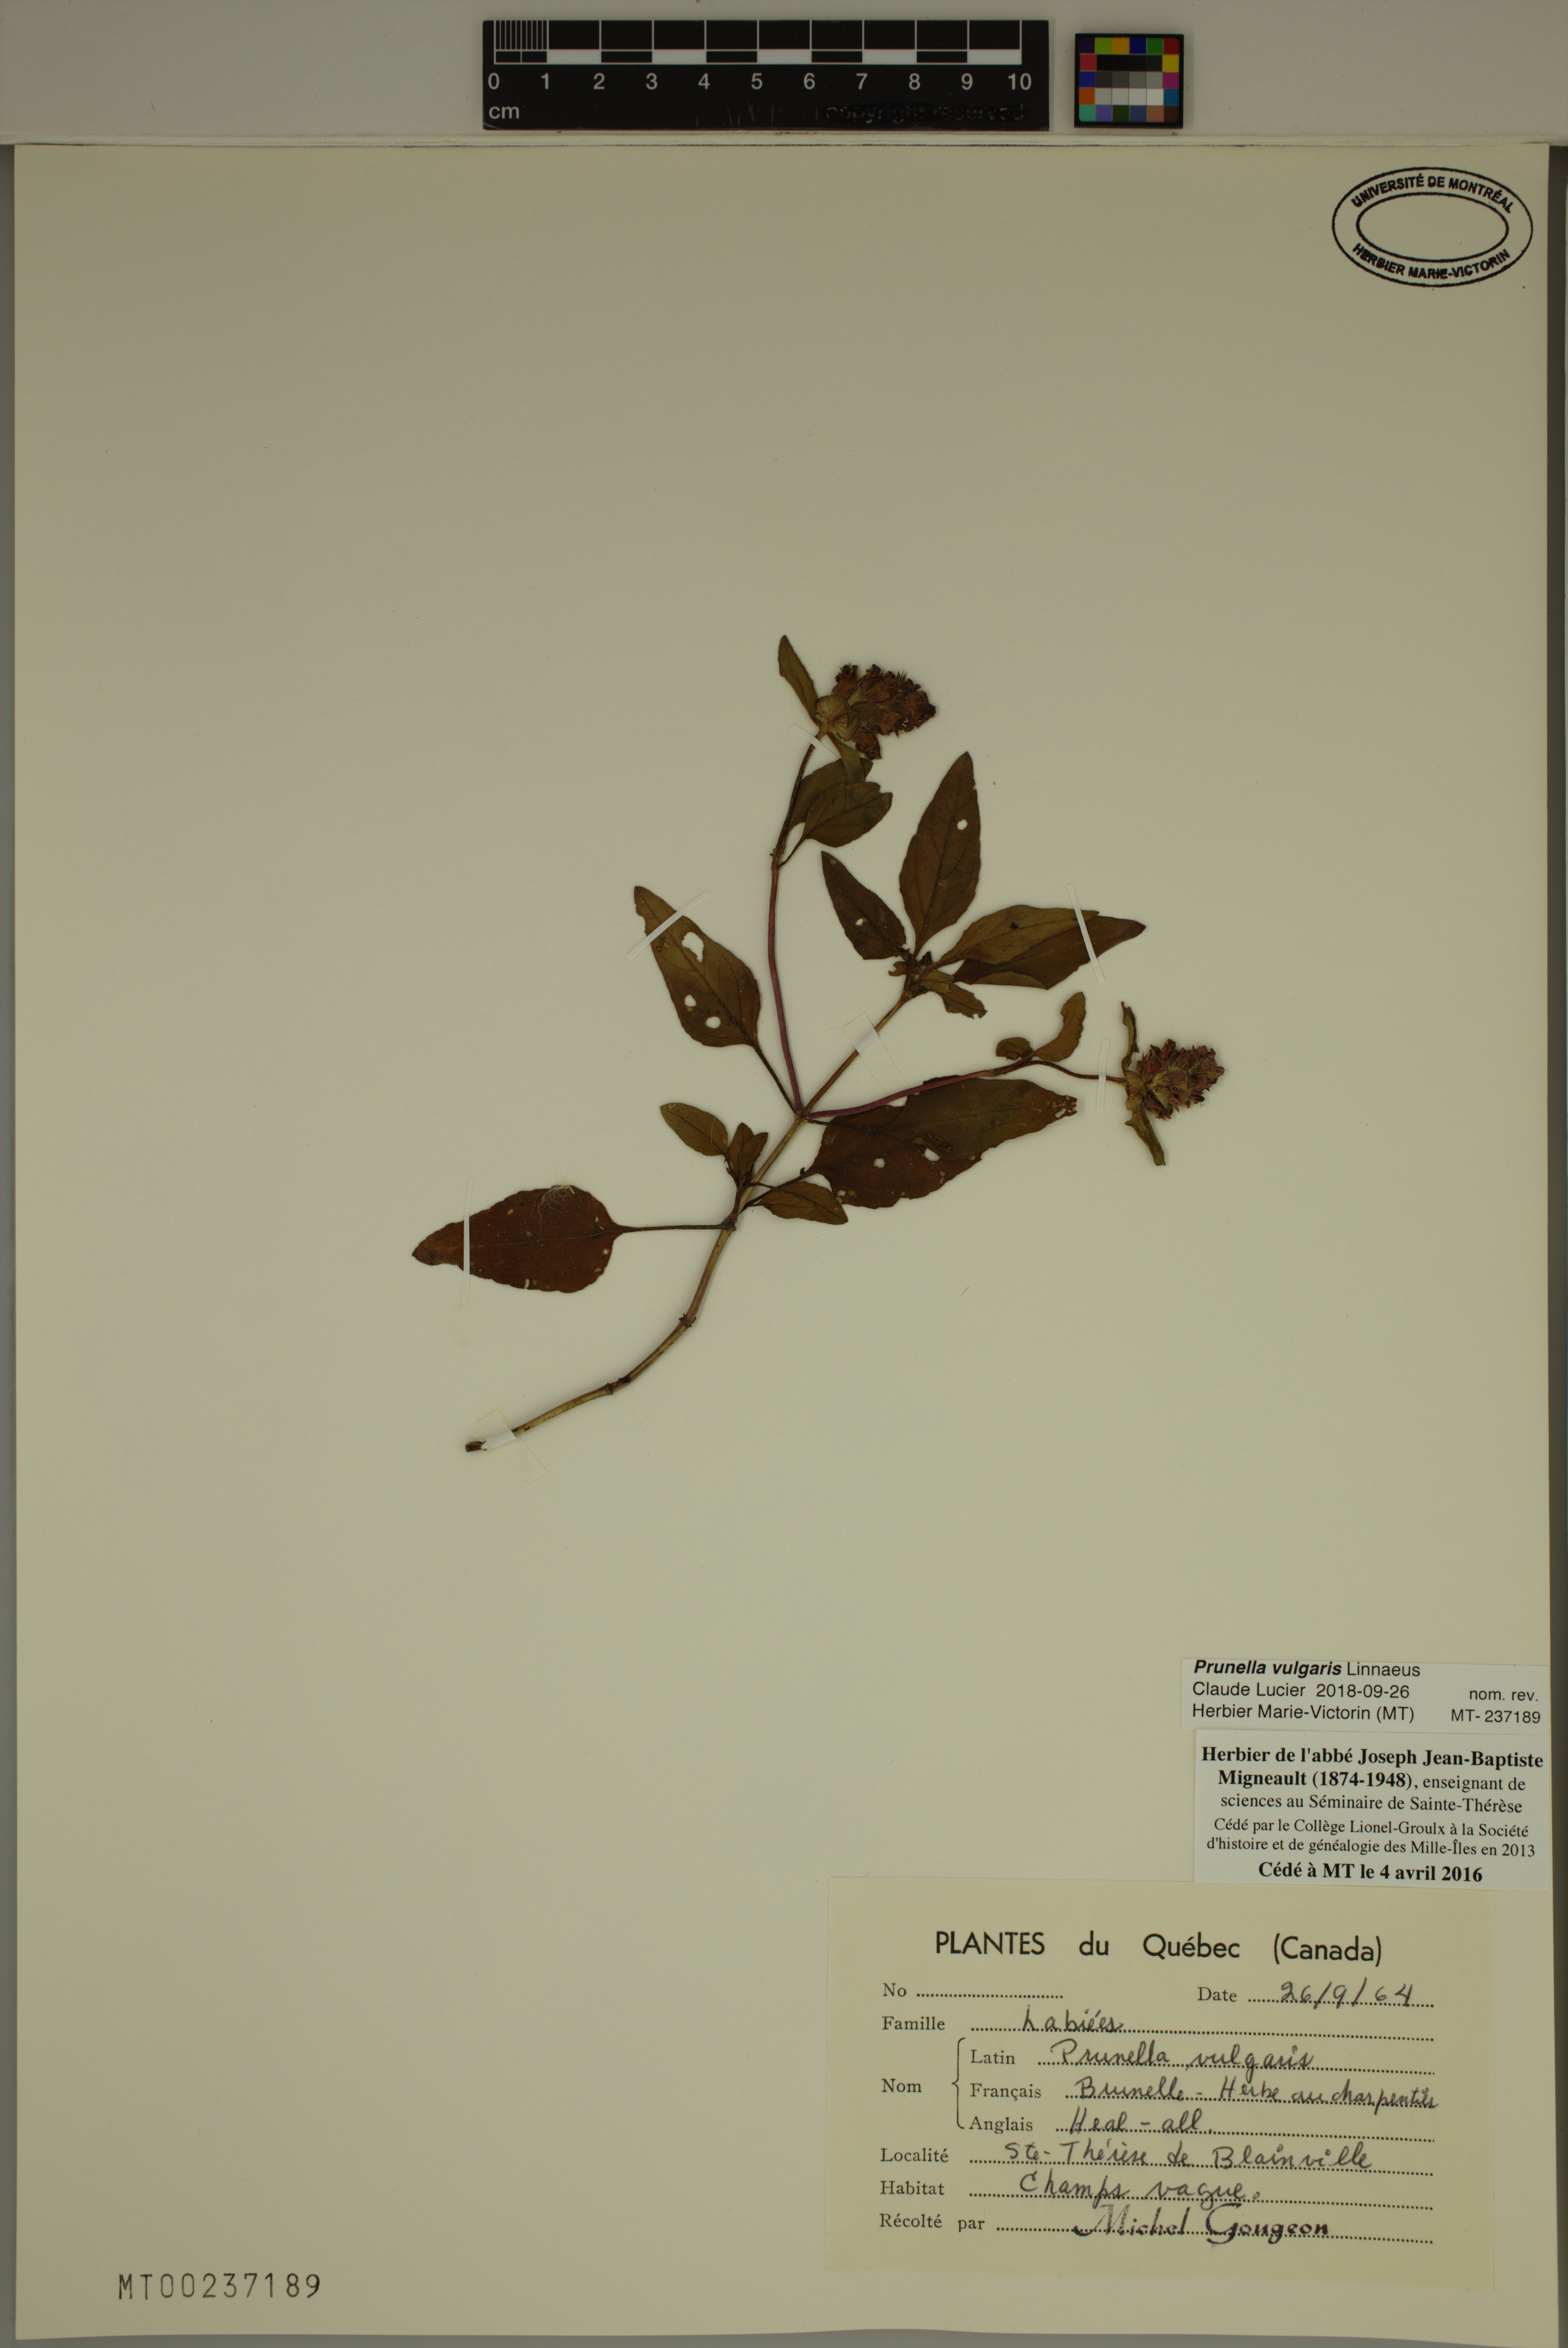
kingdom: Plantae
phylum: Tracheophyta
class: Magnoliopsida
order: Lamiales
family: Lamiaceae
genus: Prunella
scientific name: Prunella vulgaris
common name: Heal-all
